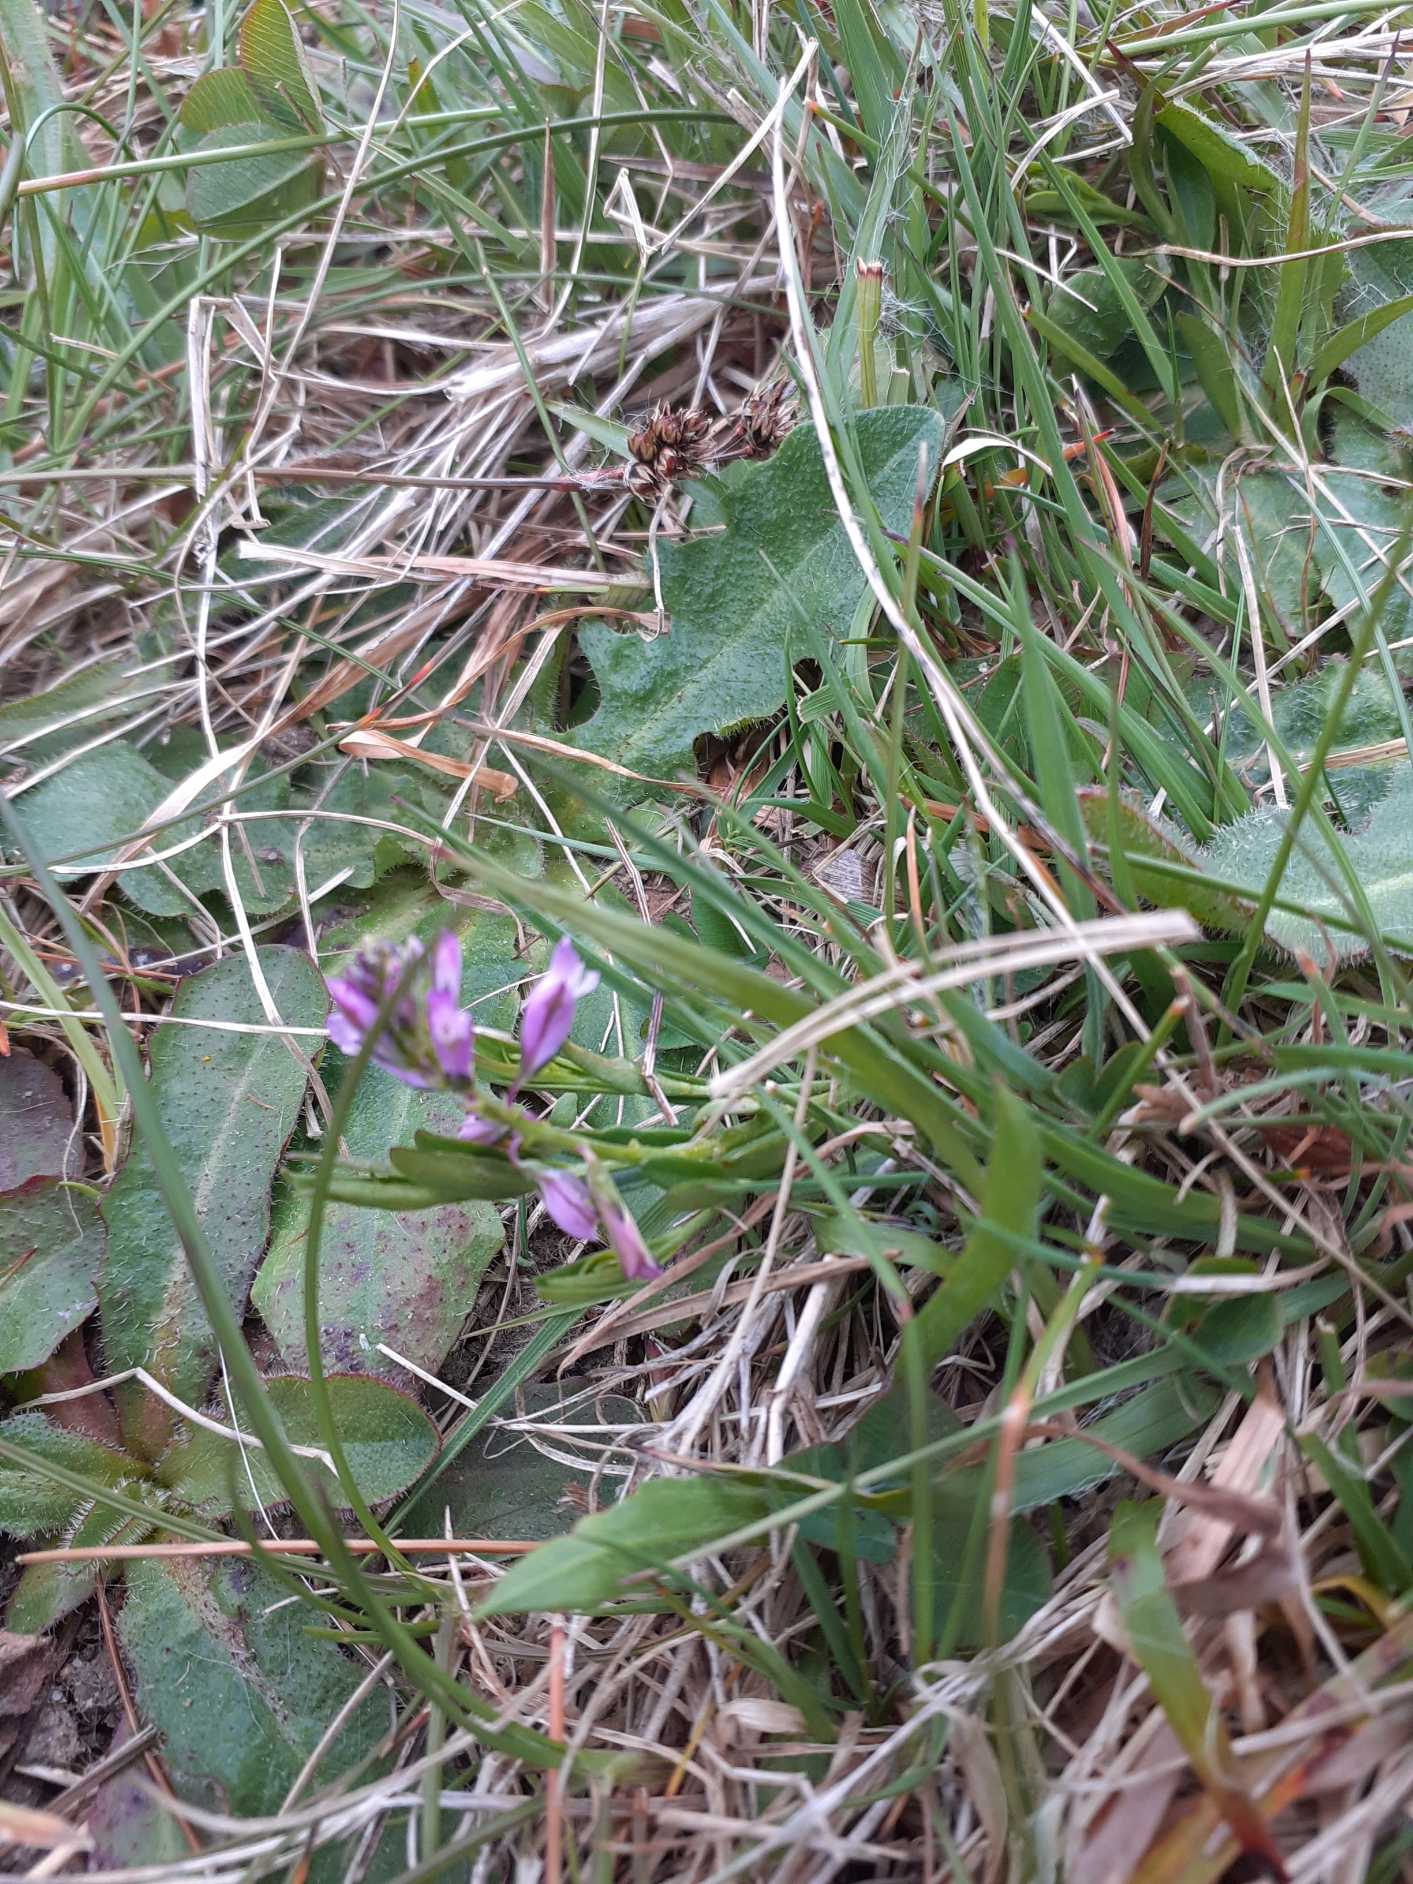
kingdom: Plantae
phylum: Tracheophyta
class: Magnoliopsida
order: Fabales
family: Polygalaceae
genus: Polygala
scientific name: Polygala vulgaris
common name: Almindelig mælkeurt
